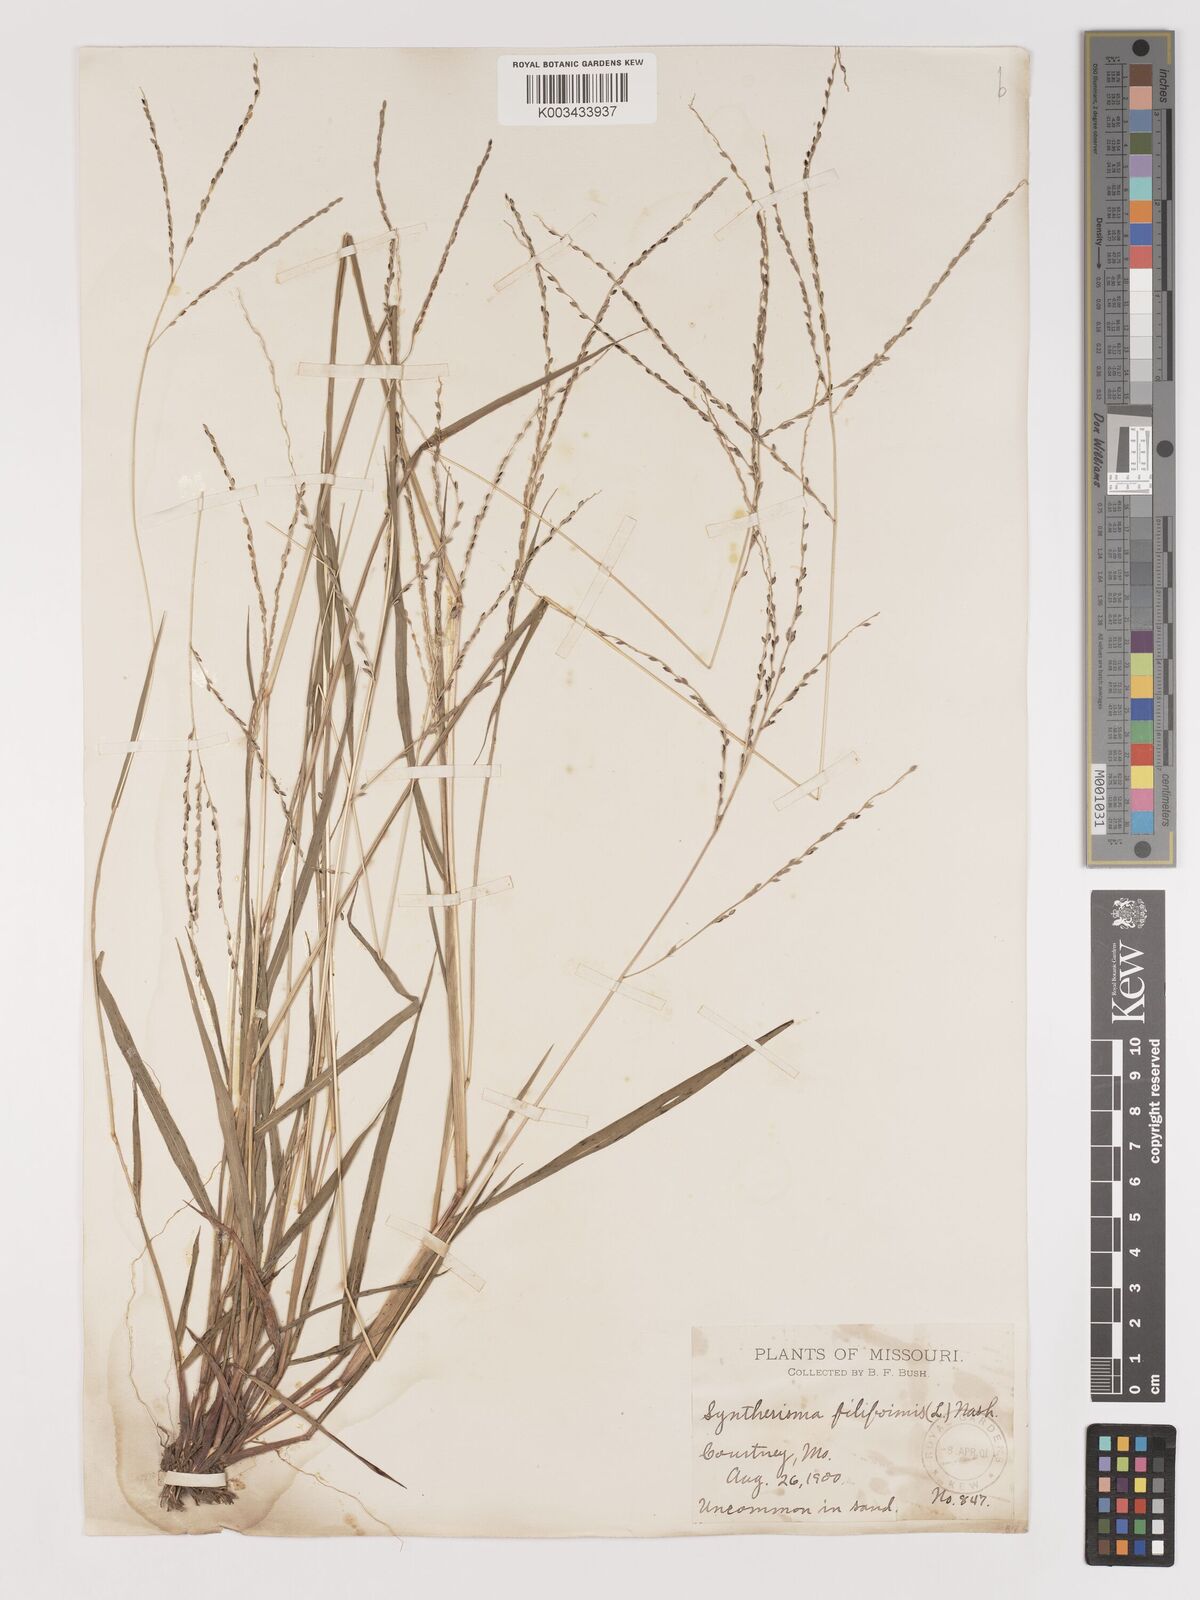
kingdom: Plantae
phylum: Tracheophyta
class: Liliopsida
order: Poales
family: Poaceae
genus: Digitaria
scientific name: Digitaria filiformis
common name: Slender crabgrass
